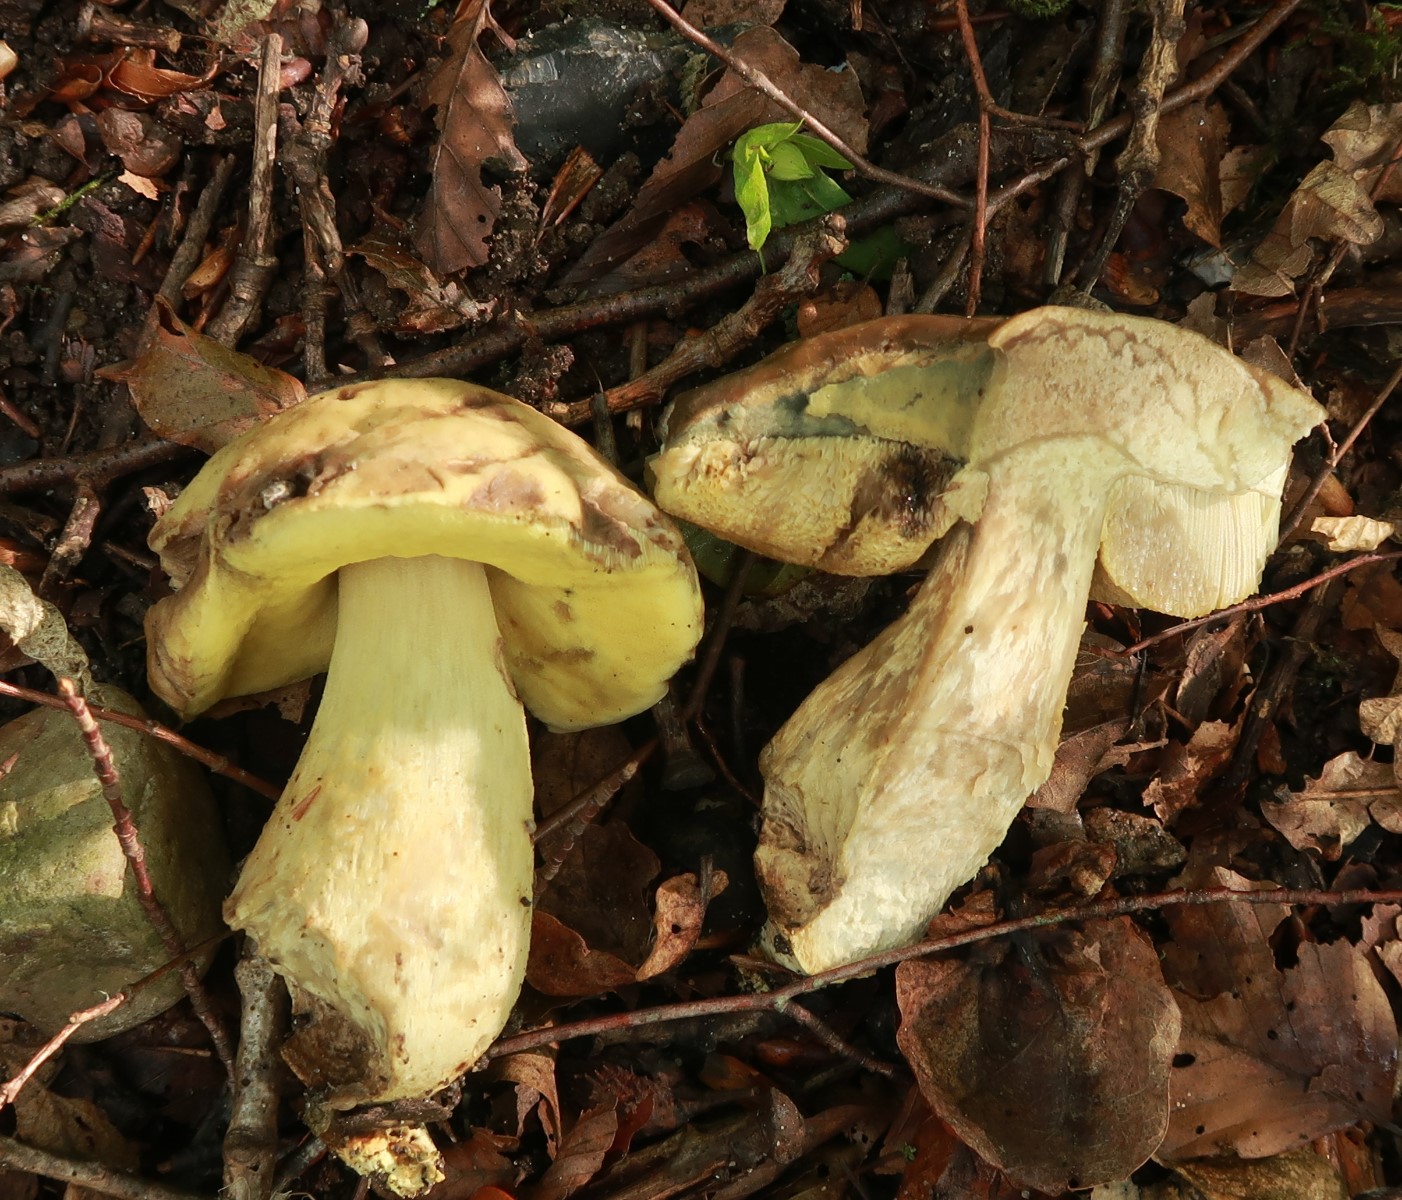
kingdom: Fungi
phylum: Basidiomycota
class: Agaricomycetes
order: Boletales
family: Boletaceae
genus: Caloboletus
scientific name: Caloboletus radicans
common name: rod-rørhat
